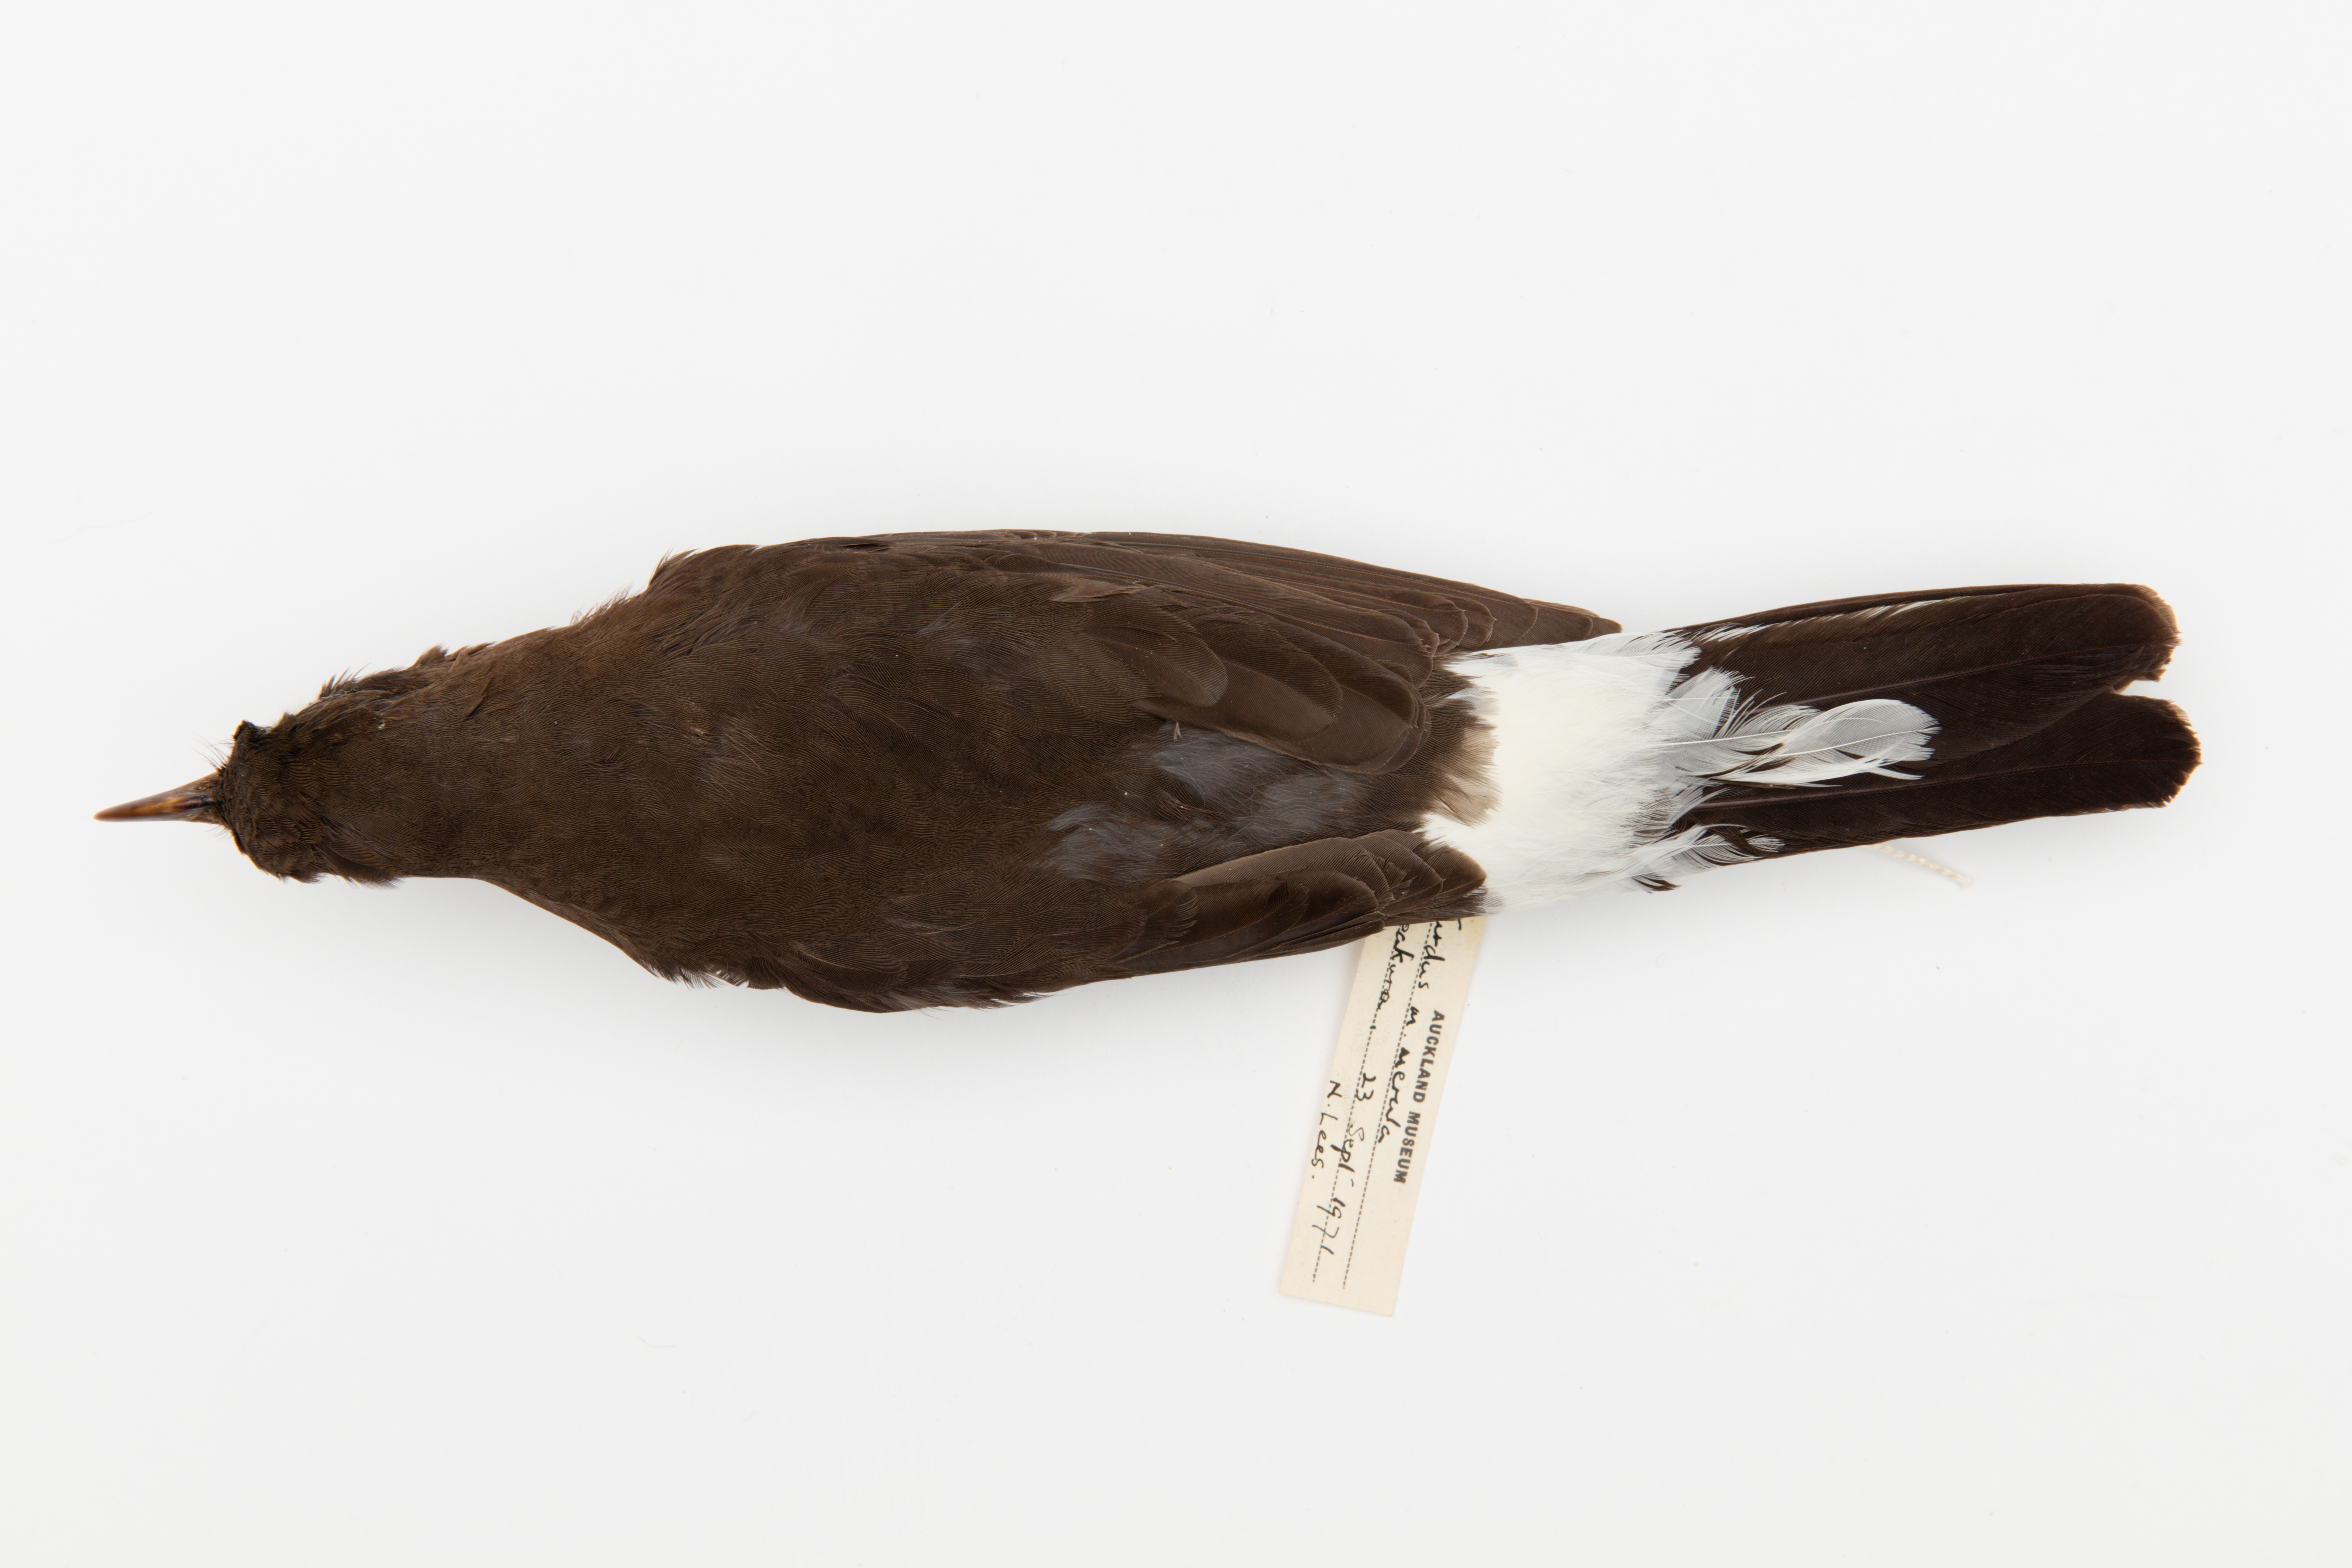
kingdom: Animalia
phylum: Chordata
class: Aves
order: Passeriformes
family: Turdidae
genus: Turdus
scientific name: Turdus merula
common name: Common blackbird
